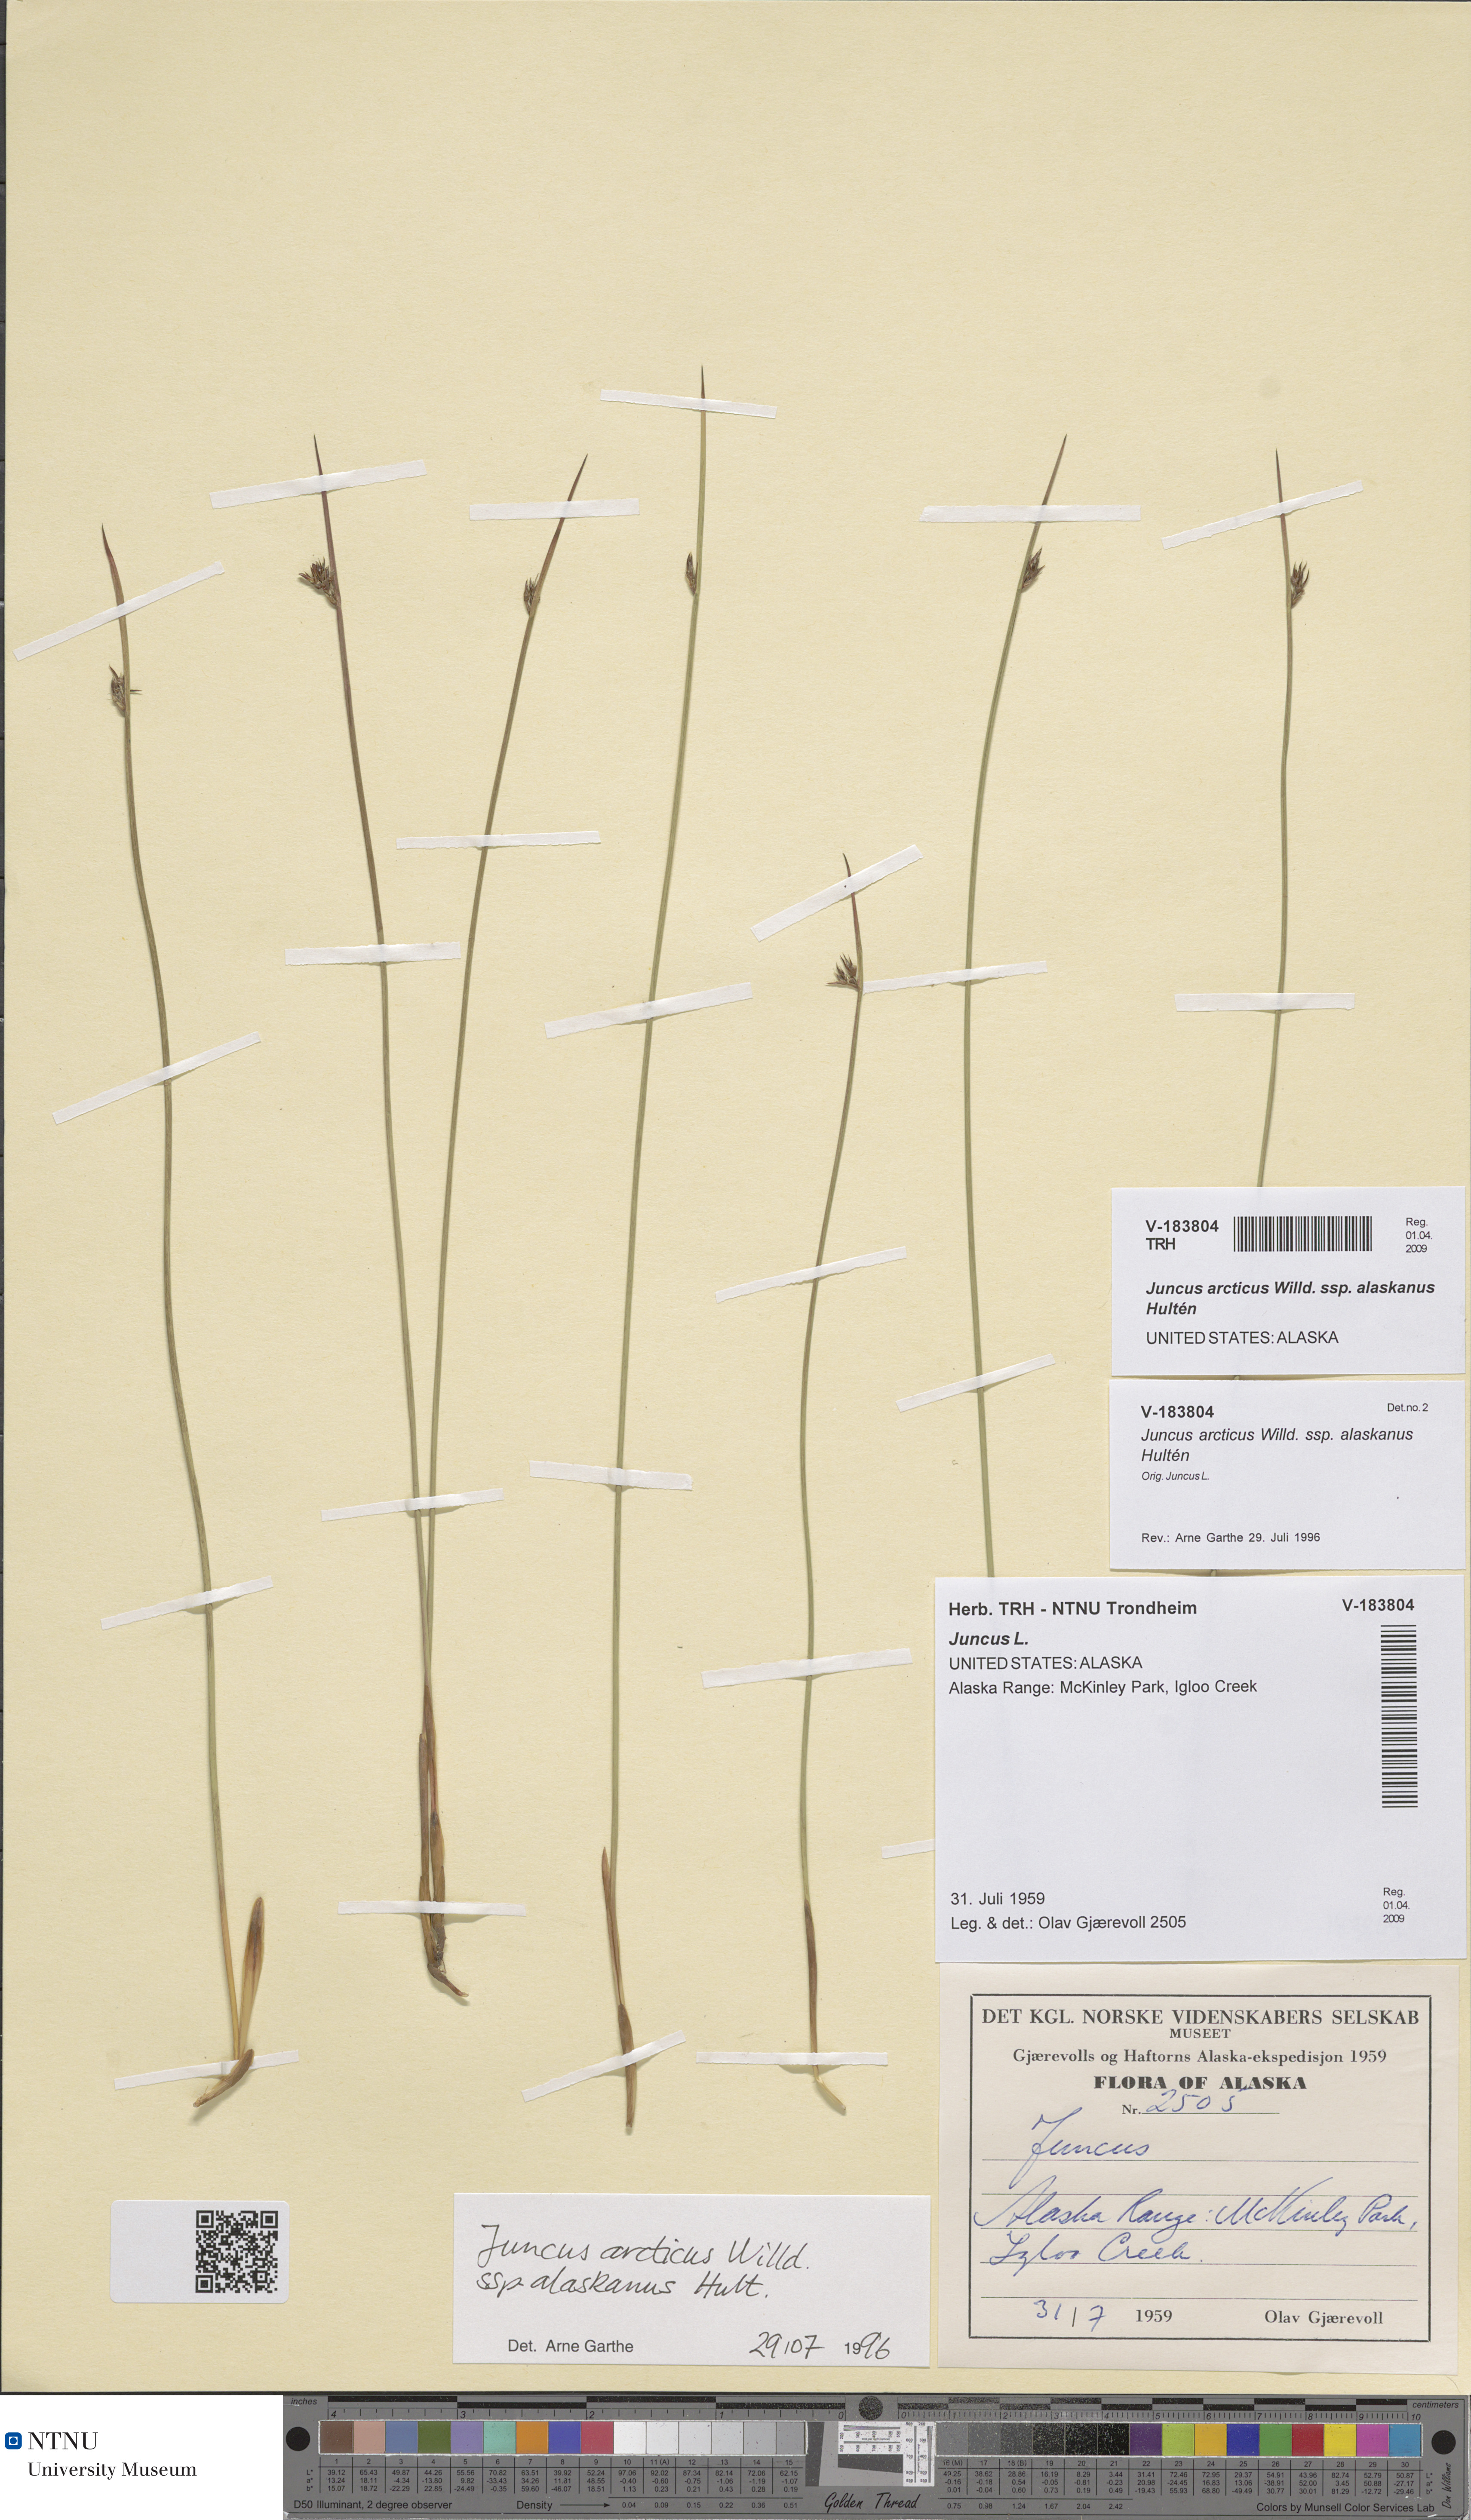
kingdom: Plantae
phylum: Tracheophyta
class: Liliopsida
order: Poales
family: Juncaceae
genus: Juncus
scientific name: Juncus arcticus
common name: Arctic rush
